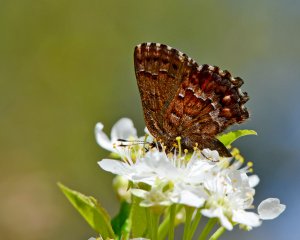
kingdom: Animalia
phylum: Arthropoda
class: Insecta
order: Lepidoptera
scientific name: Lepidoptera
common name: Butterflies
